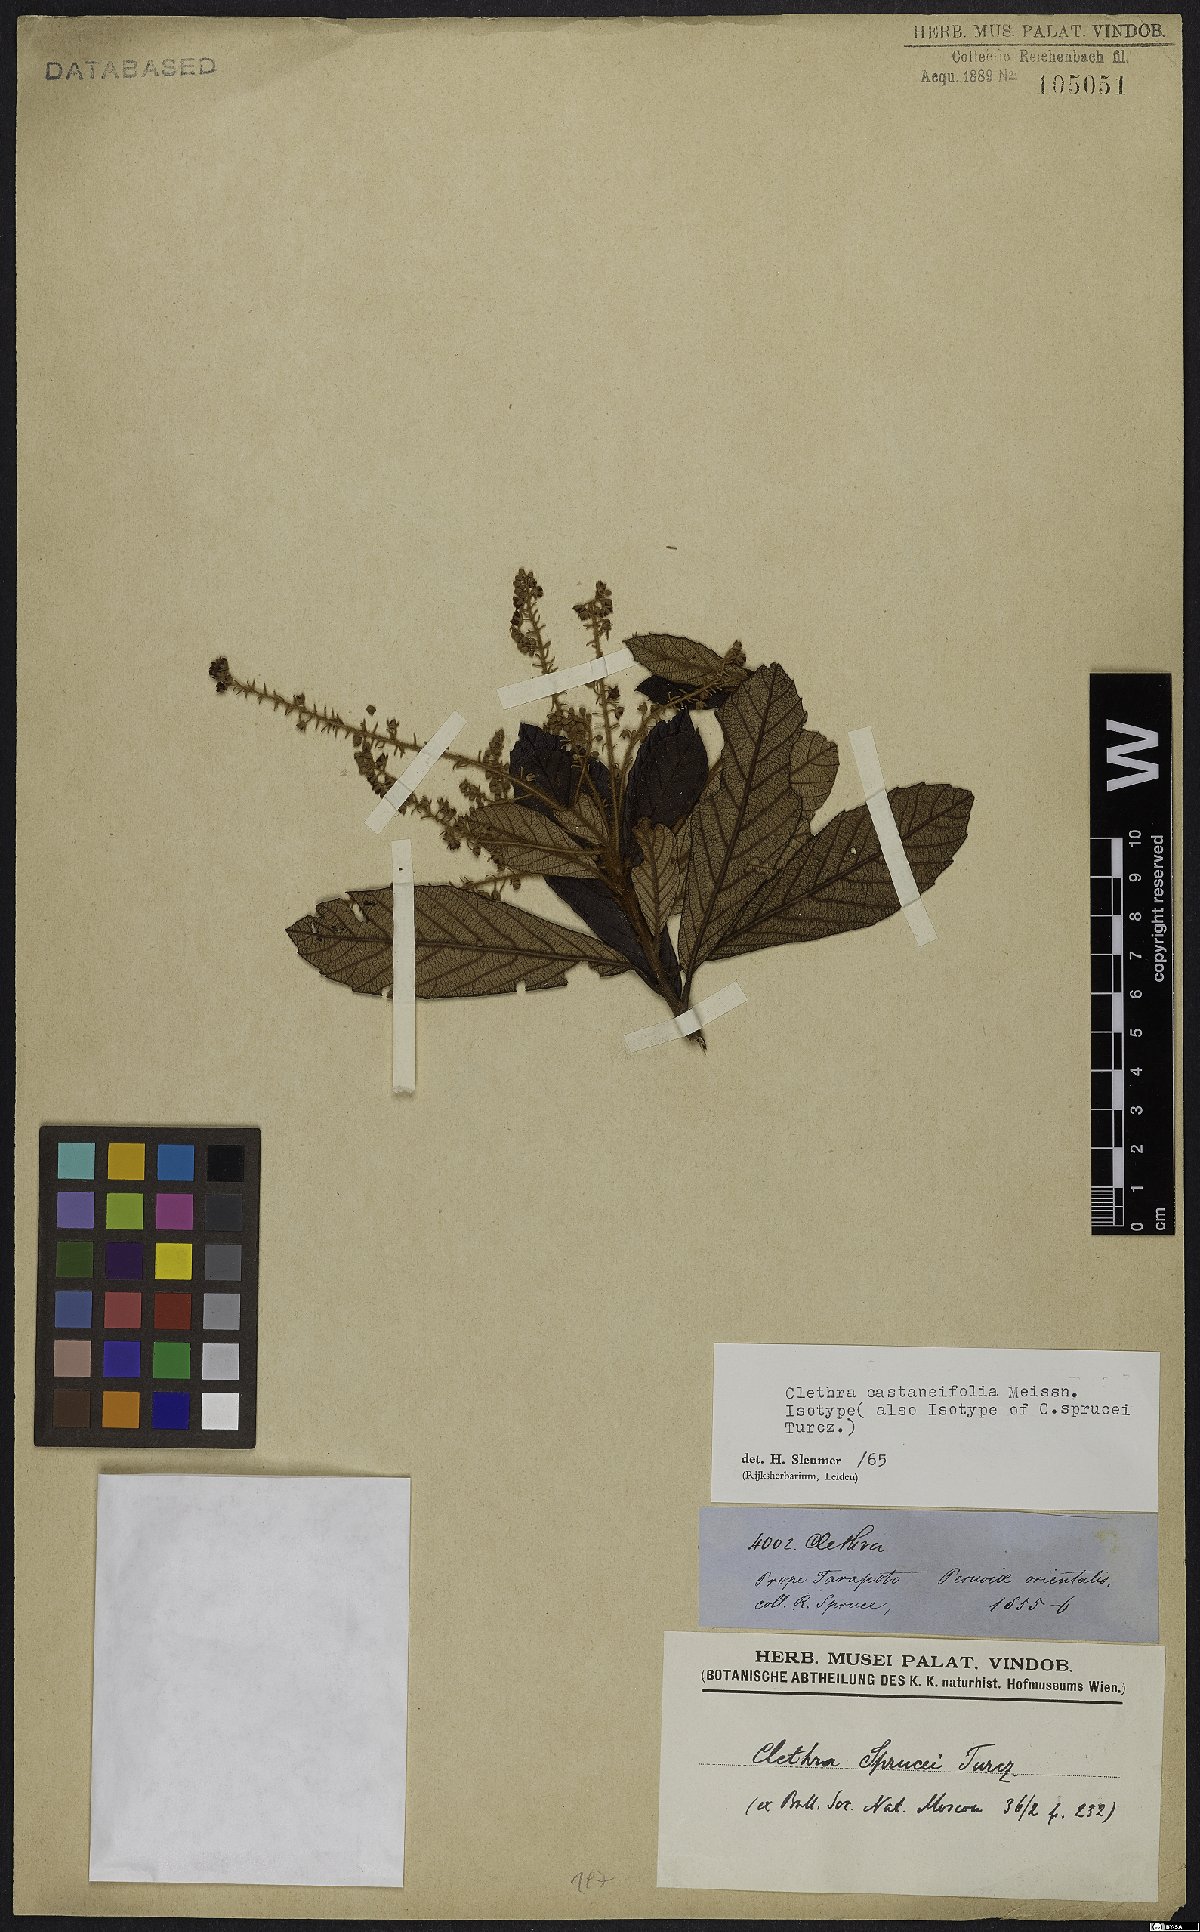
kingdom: Plantae
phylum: Tracheophyta
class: Magnoliopsida
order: Ericales
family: Clethraceae
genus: Clethra
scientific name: Clethra castaneifolia
